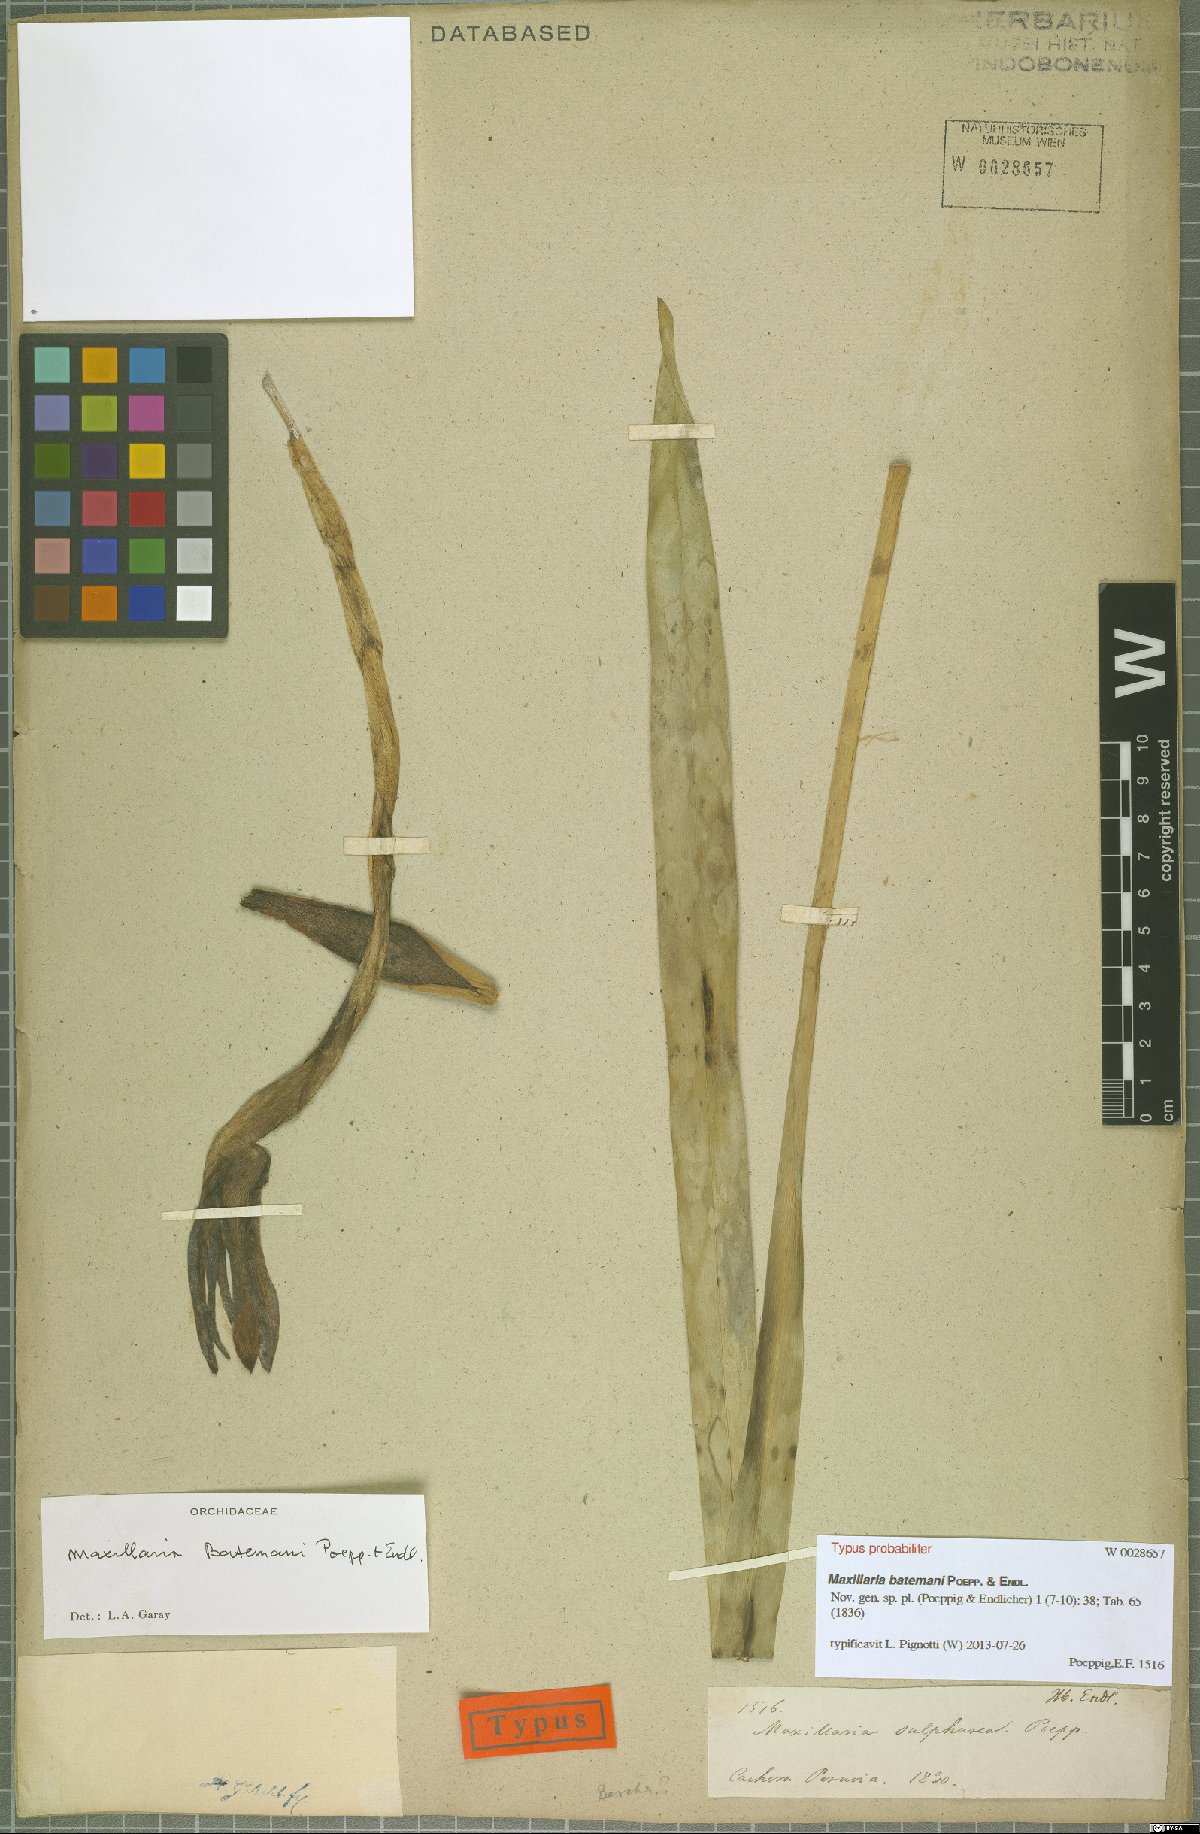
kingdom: Plantae
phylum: Tracheophyta
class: Liliopsida
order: Asparagales
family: Orchidaceae
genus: Maxillaria
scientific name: Maxillaria batemanii
